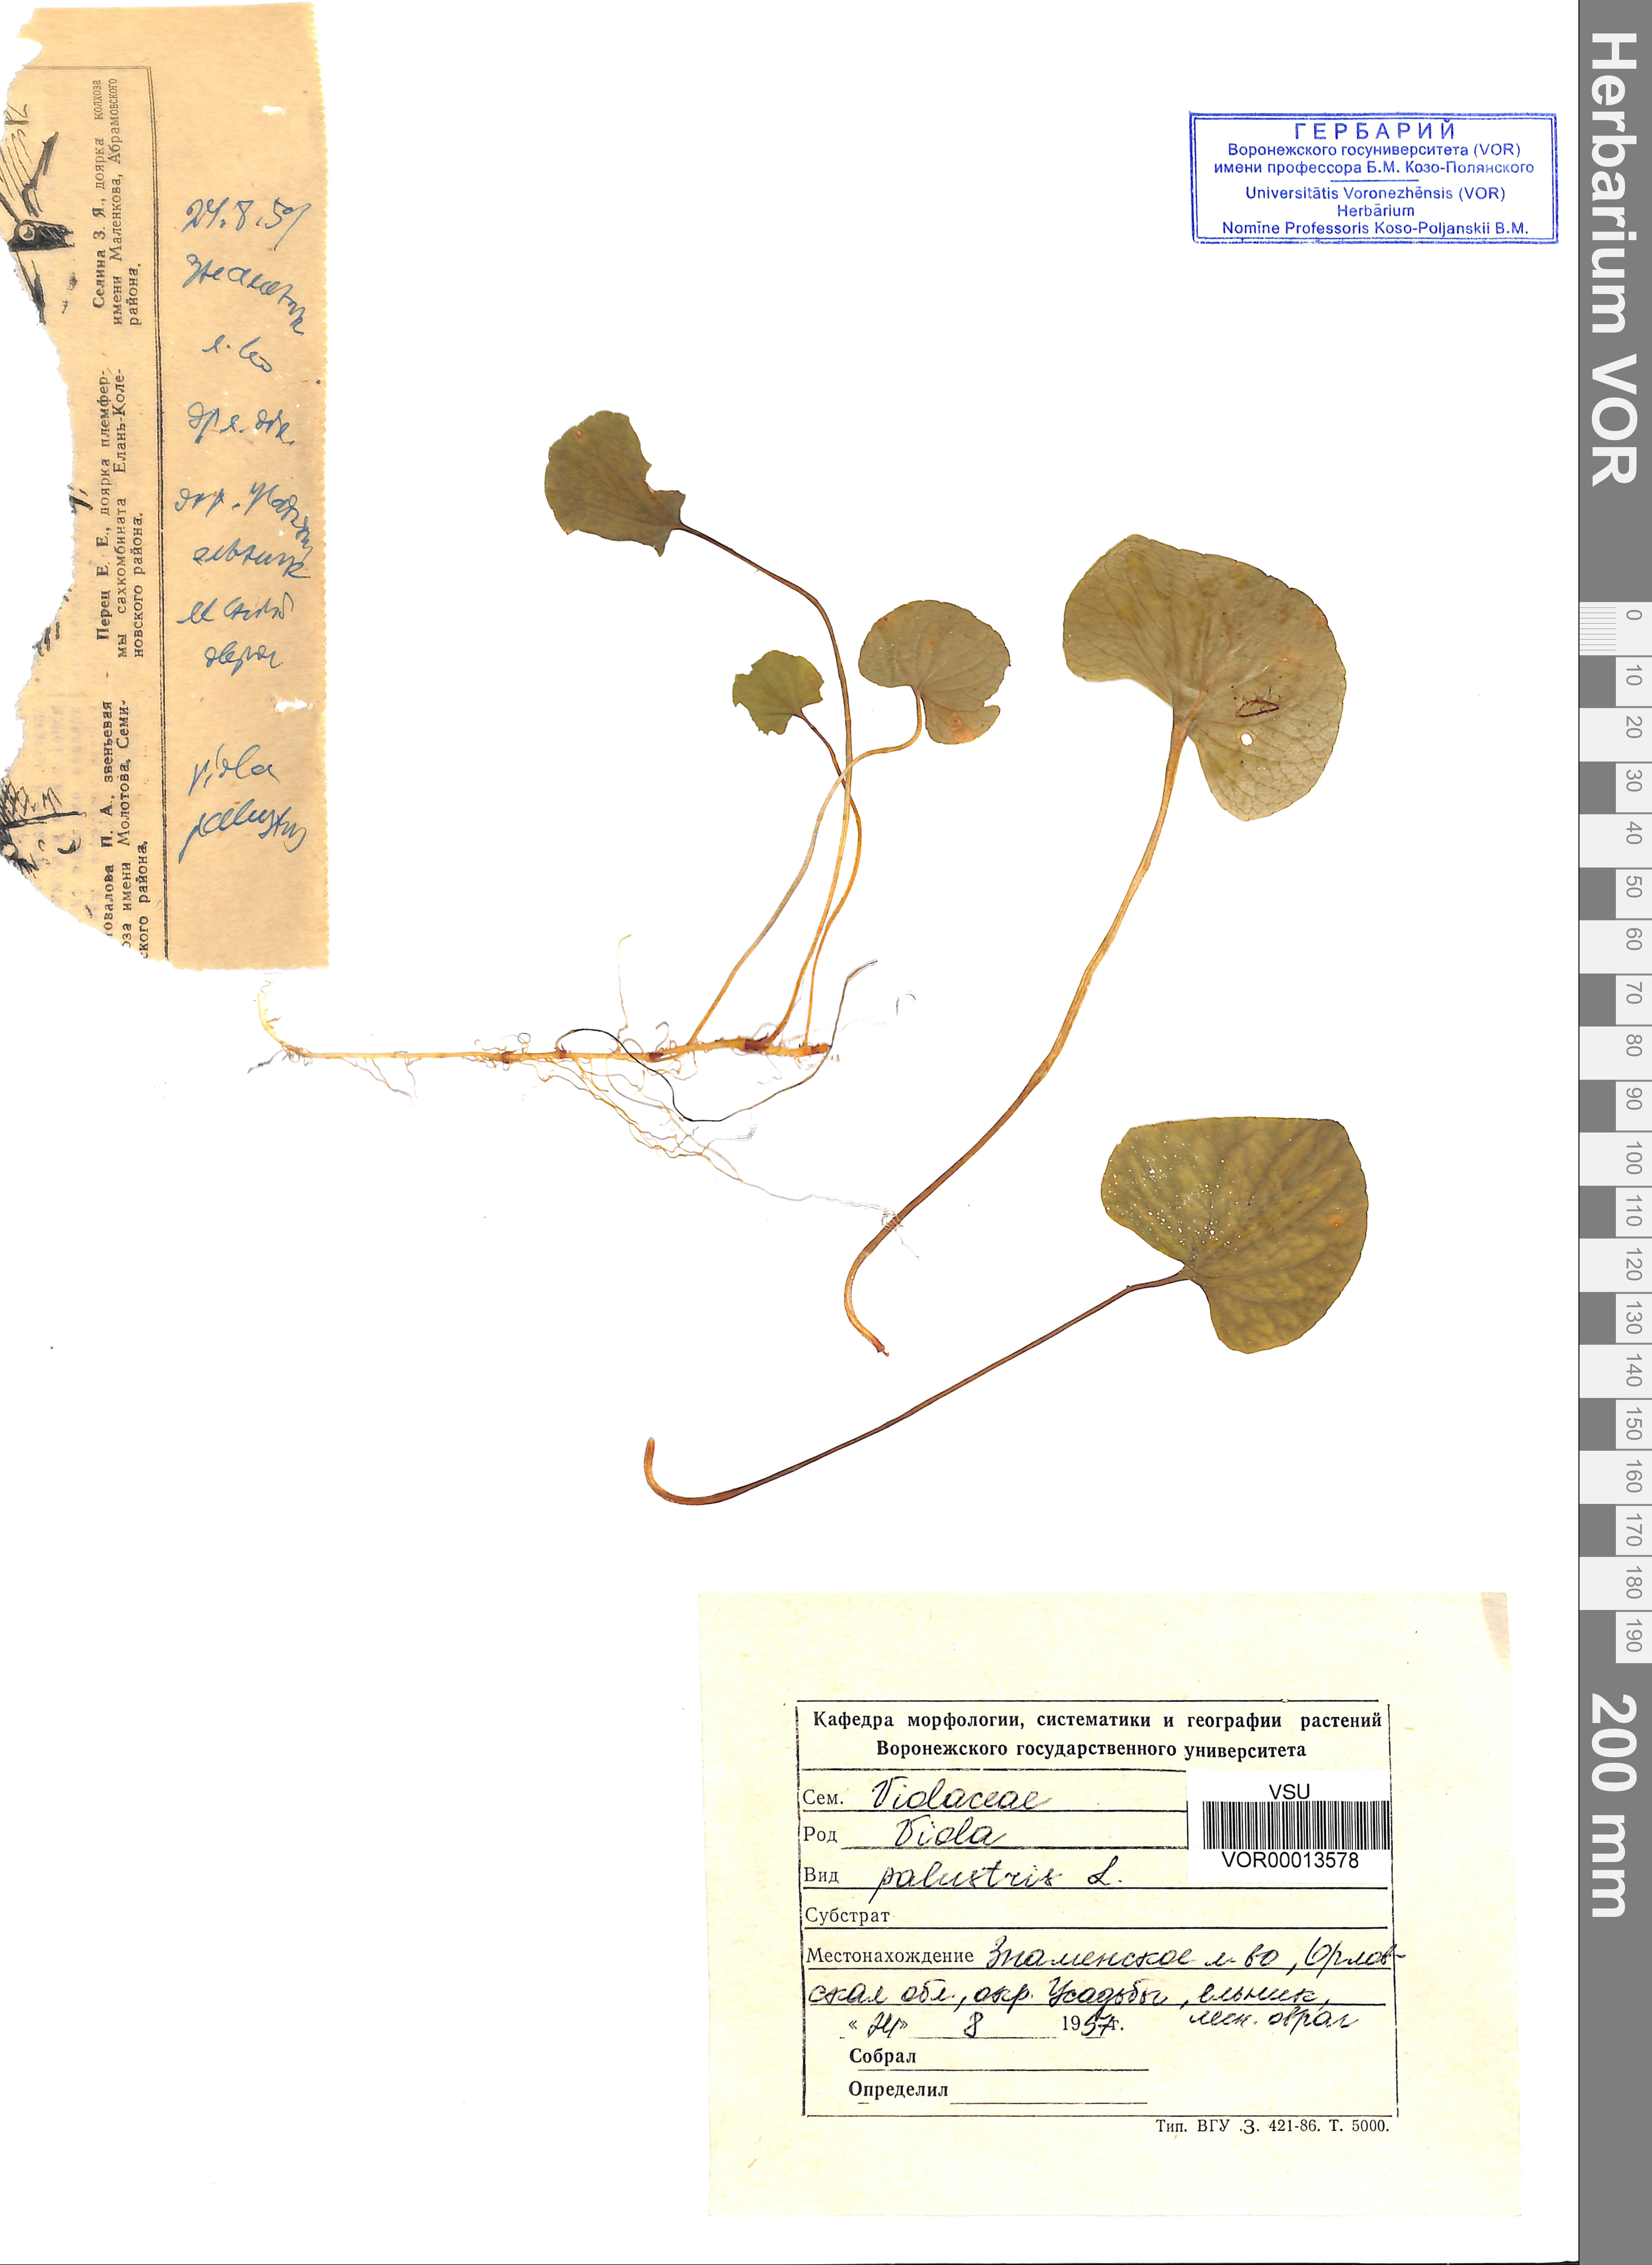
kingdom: Plantae
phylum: Tracheophyta
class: Magnoliopsida
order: Malpighiales
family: Violaceae
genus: Viola
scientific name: Viola palustris
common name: Marsh violet
